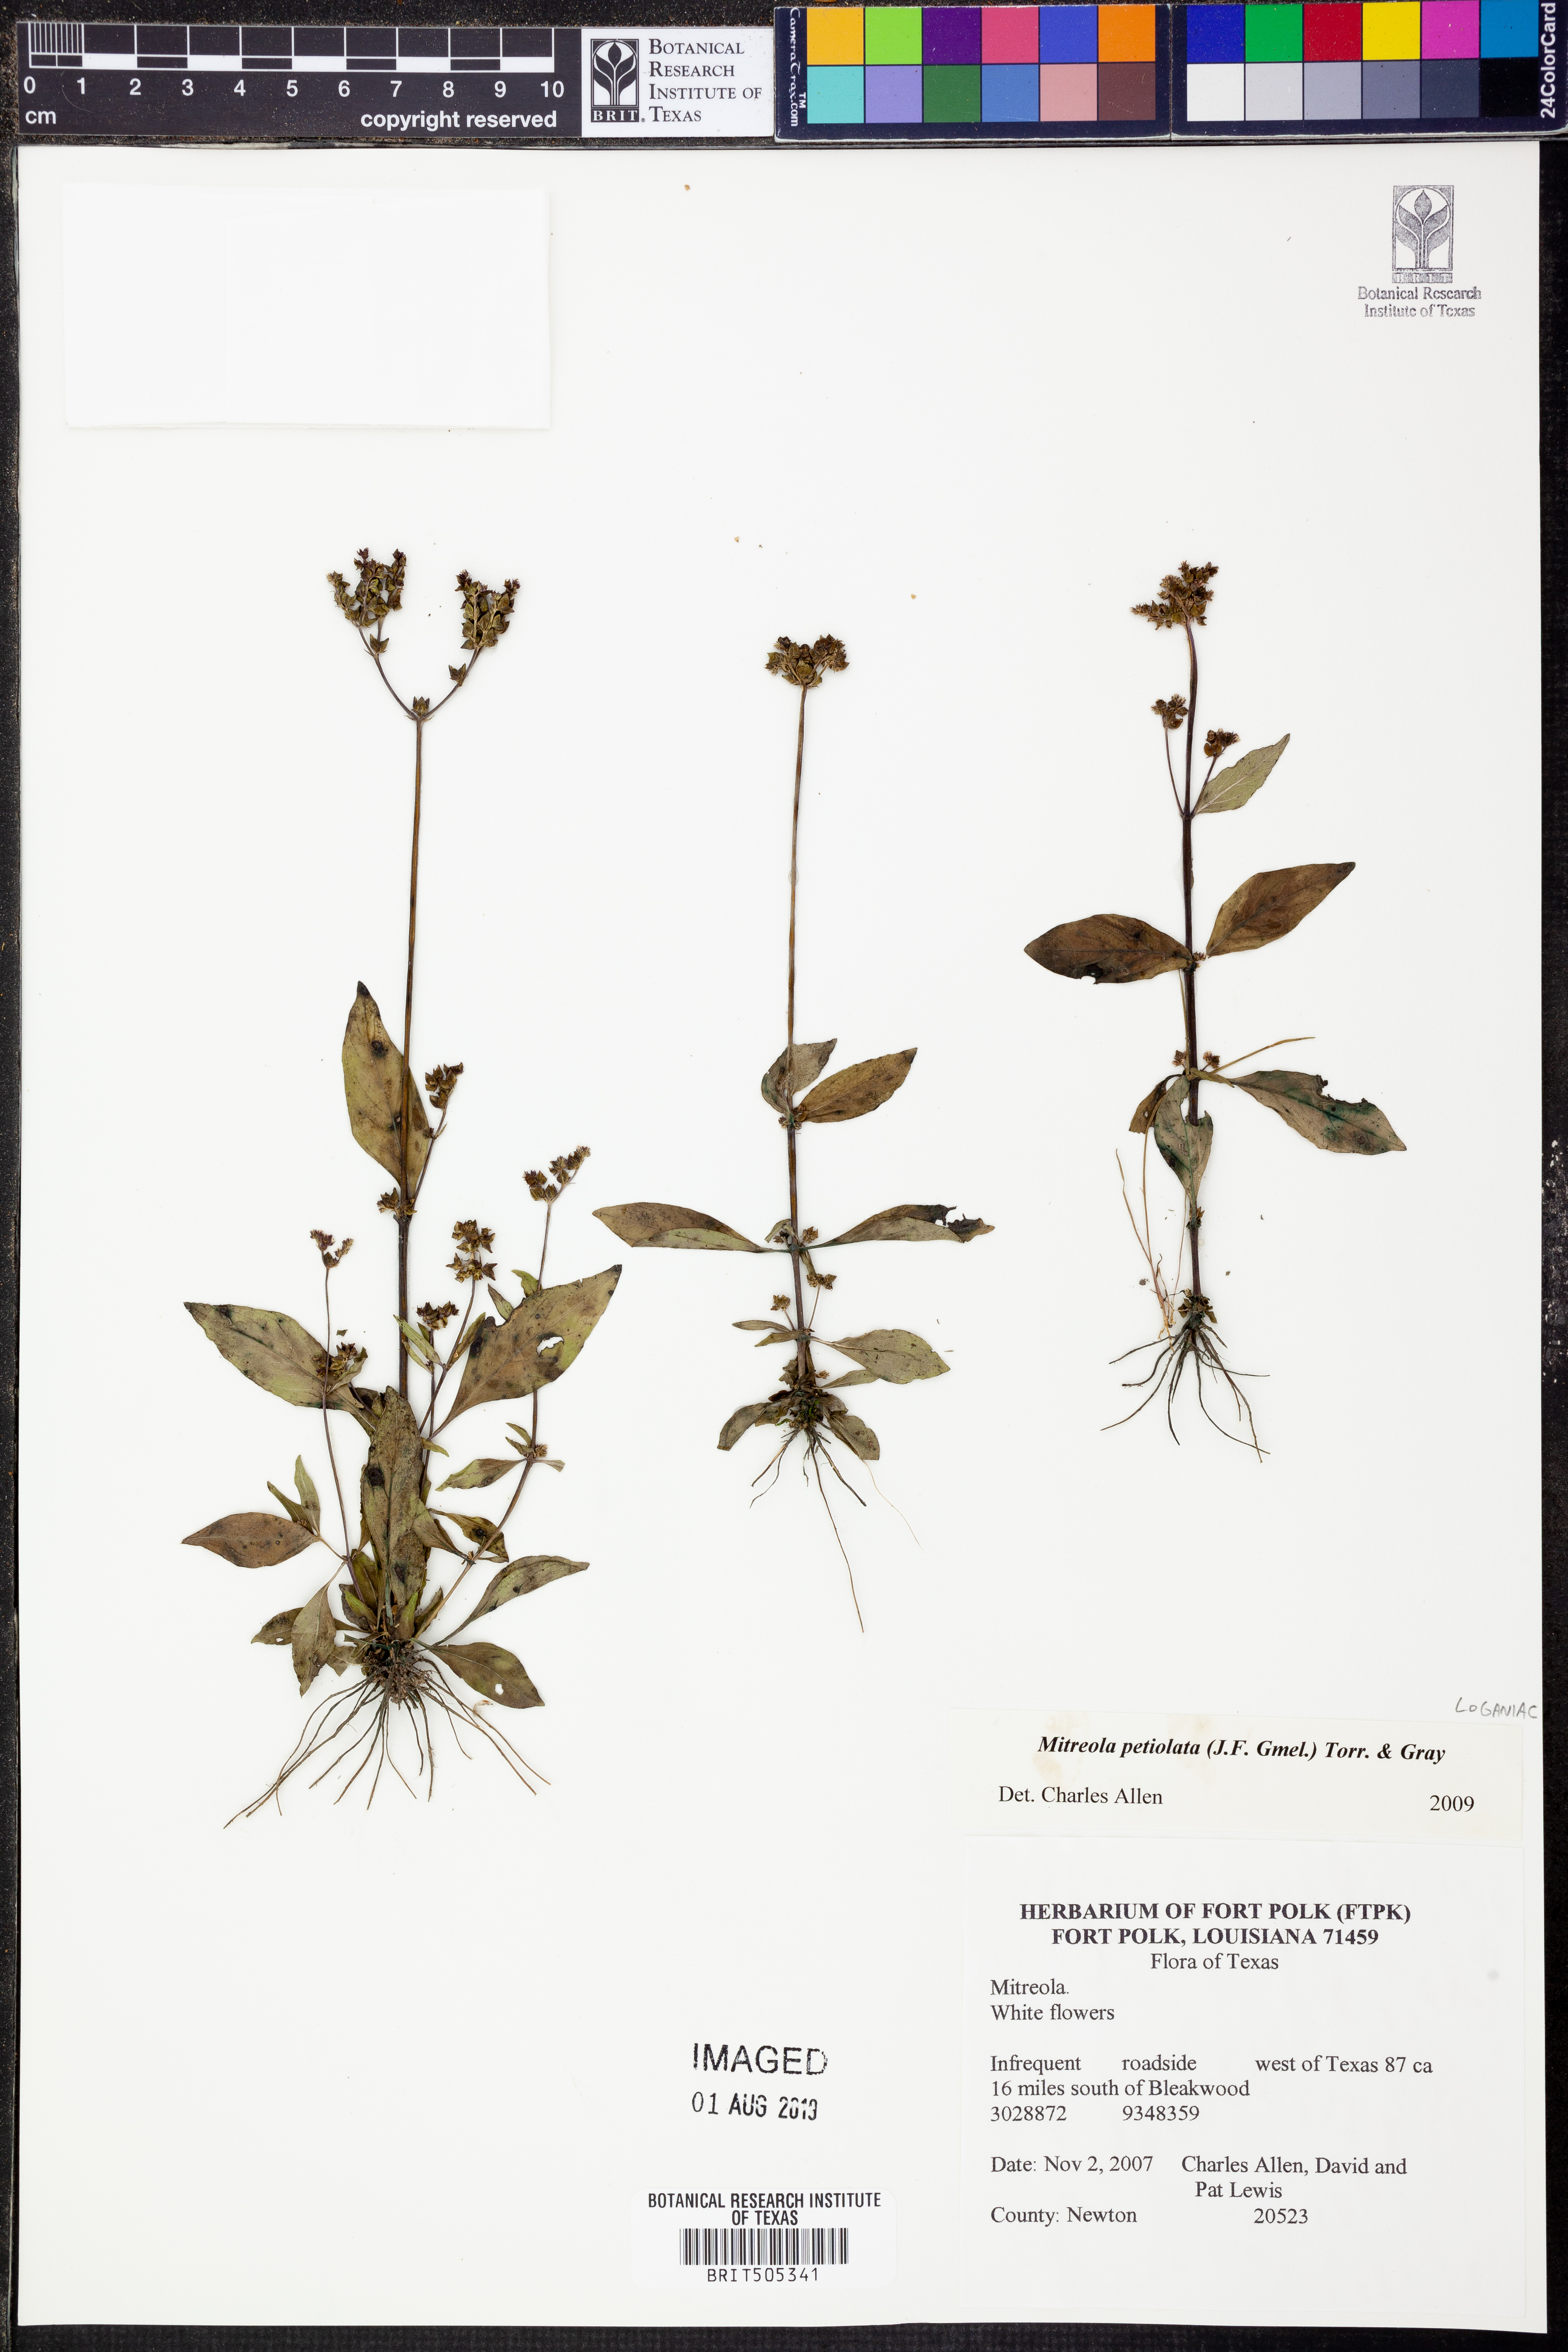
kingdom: Plantae
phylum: Tracheophyta
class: Magnoliopsida
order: Gentianales
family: Loganiaceae
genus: Mitreola
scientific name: Mitreola petiolata
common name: Lax hornpod
